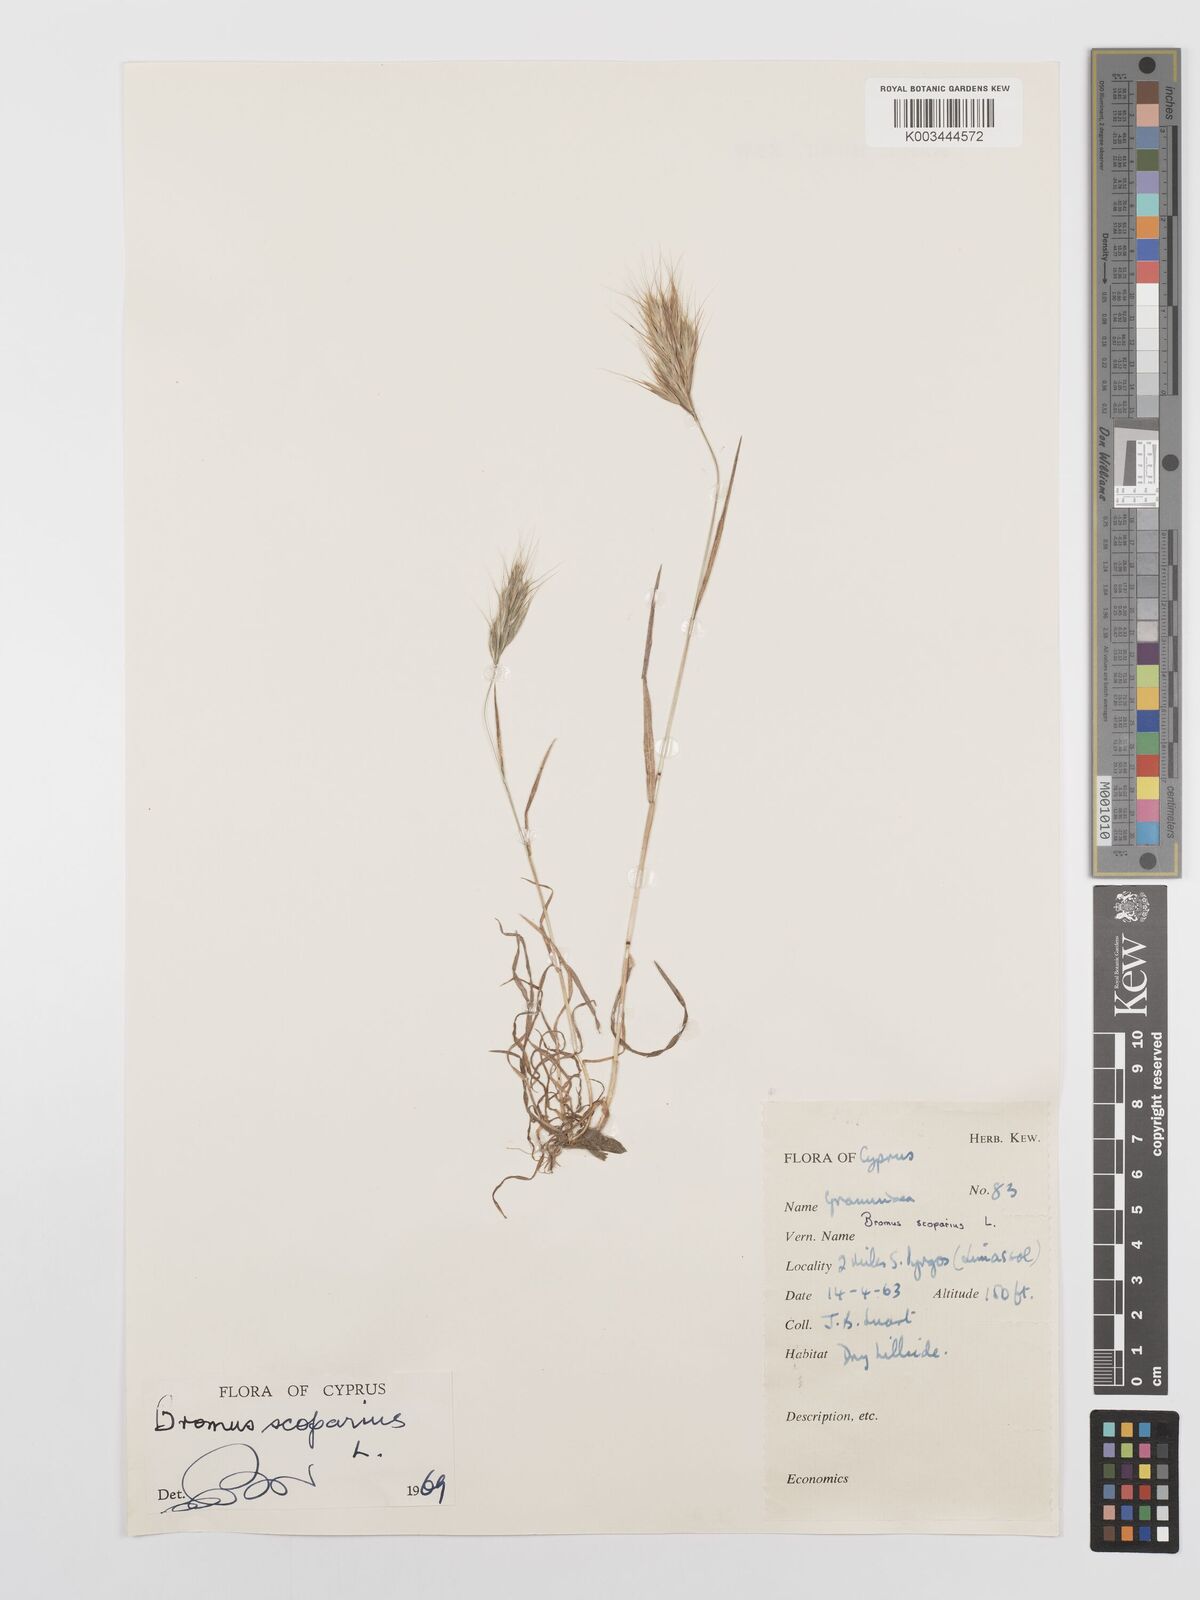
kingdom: Plantae
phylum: Tracheophyta
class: Liliopsida
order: Poales
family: Poaceae
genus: Bromus
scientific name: Bromus scoparius
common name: Broom brome
